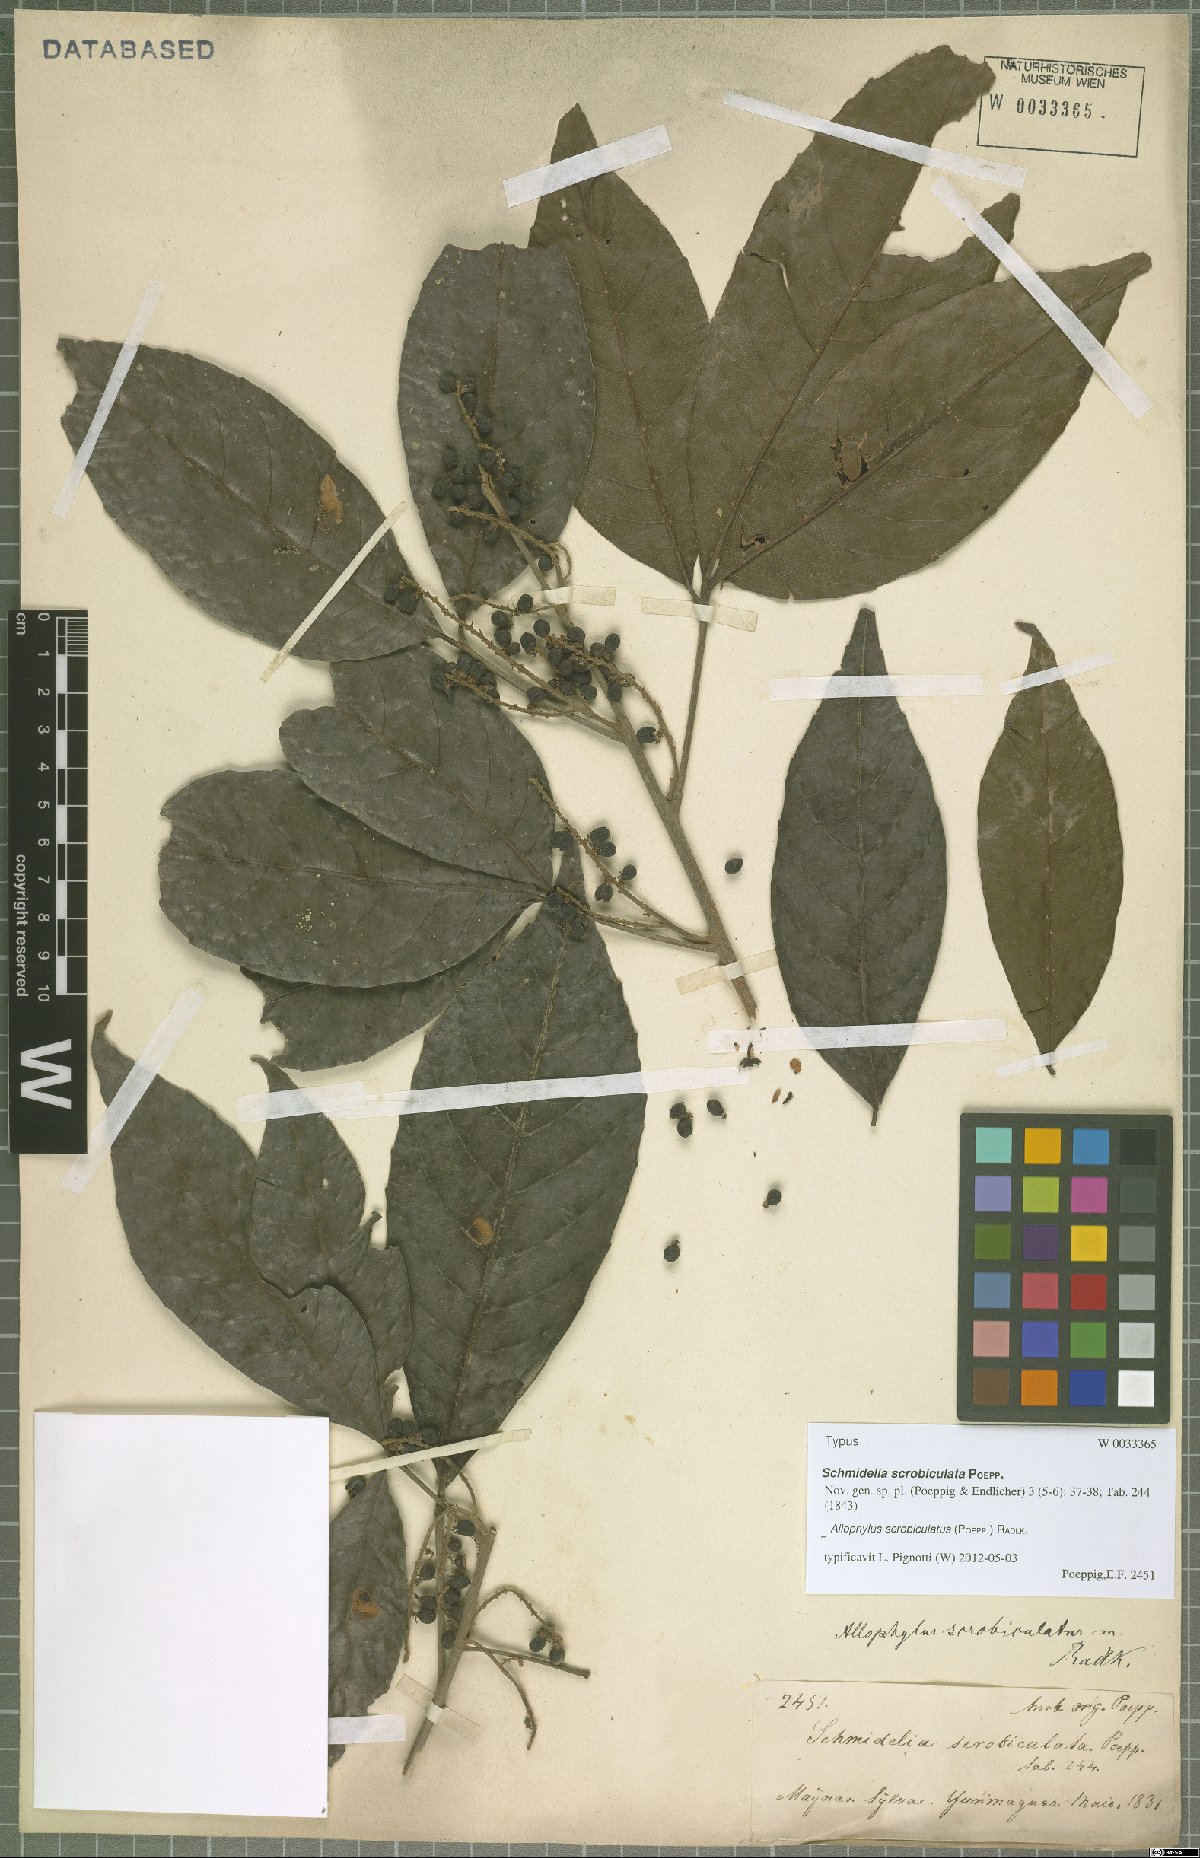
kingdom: Plantae
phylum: Tracheophyta
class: Magnoliopsida
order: Sapindales
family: Sapindaceae
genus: Allophylus
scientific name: Allophylus scrobiculatus
